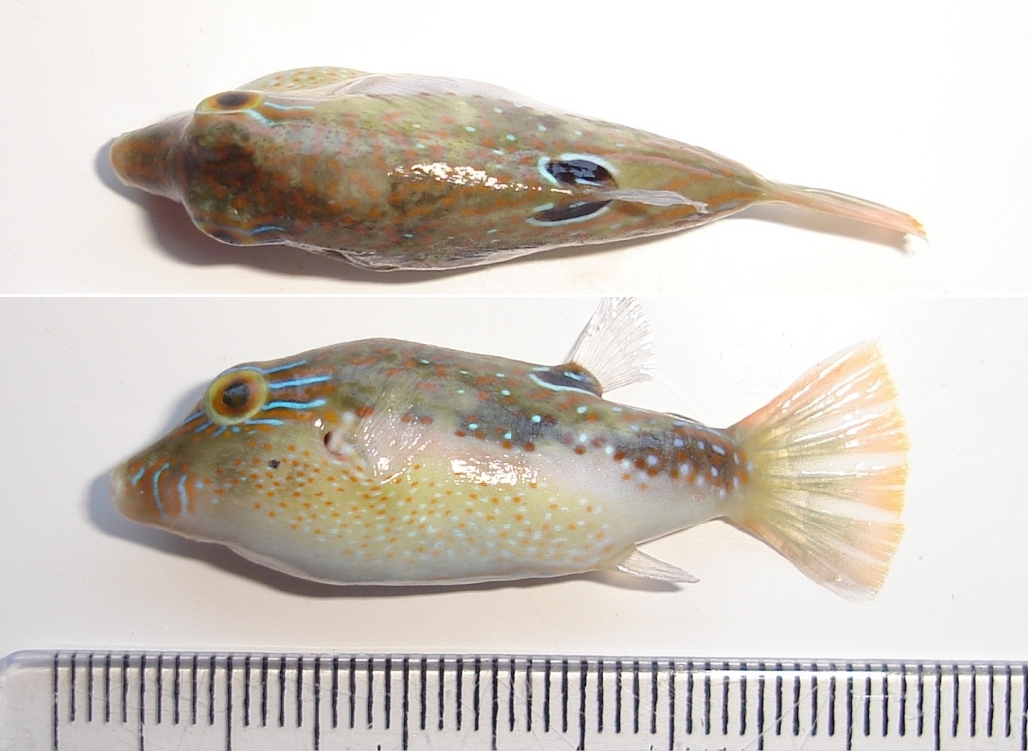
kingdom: Animalia
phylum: Chordata
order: Tetraodontiformes
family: Tetraodontidae
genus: Canthigaster
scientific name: Canthigaster bennetti
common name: Bennett's pufferfish
